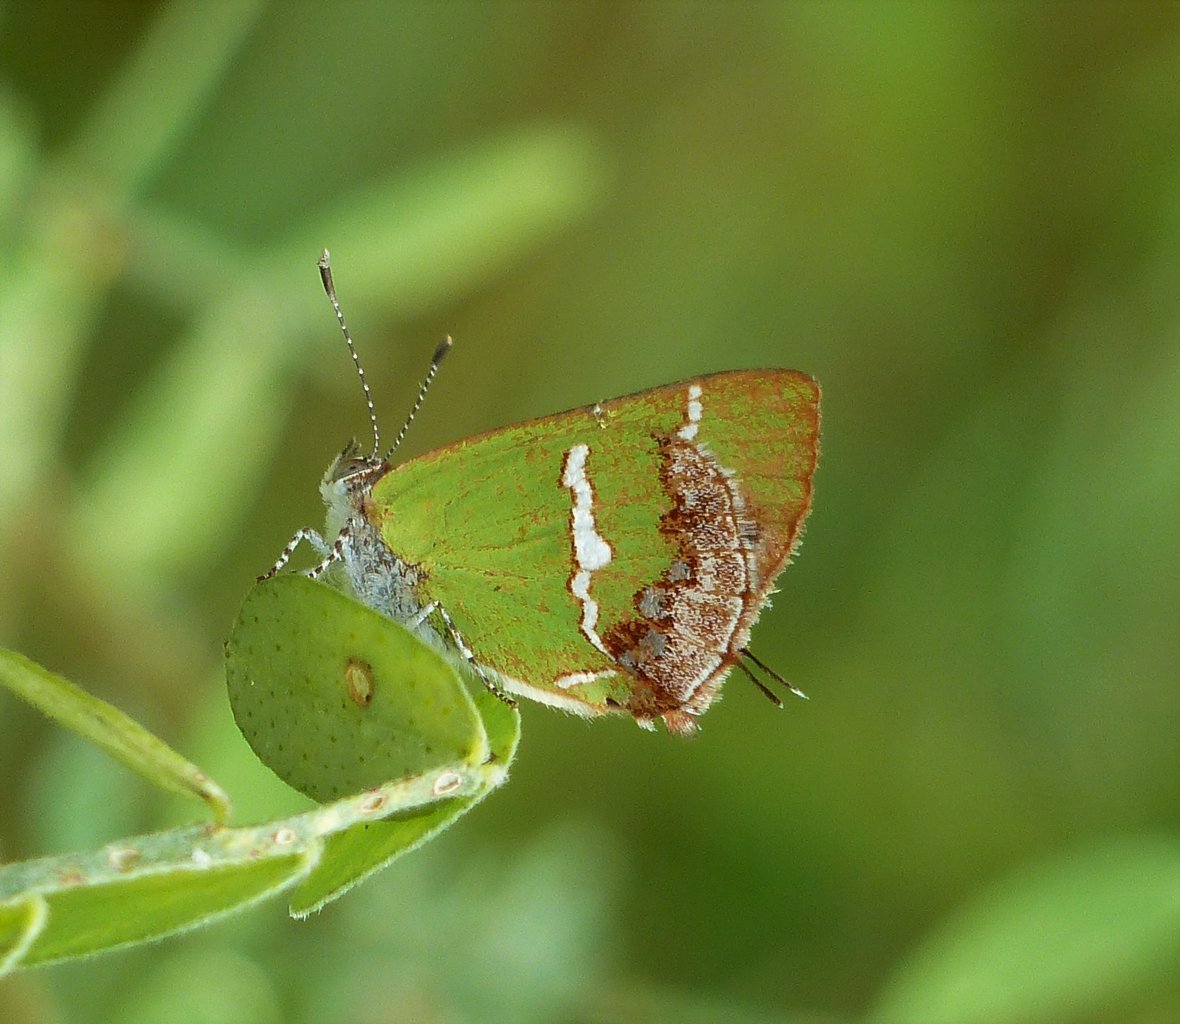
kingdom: Animalia
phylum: Arthropoda
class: Insecta
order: Lepidoptera
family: Lycaenidae
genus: Chlorostrymon
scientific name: Chlorostrymon simaethis
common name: Silver-banded Hairstreak
